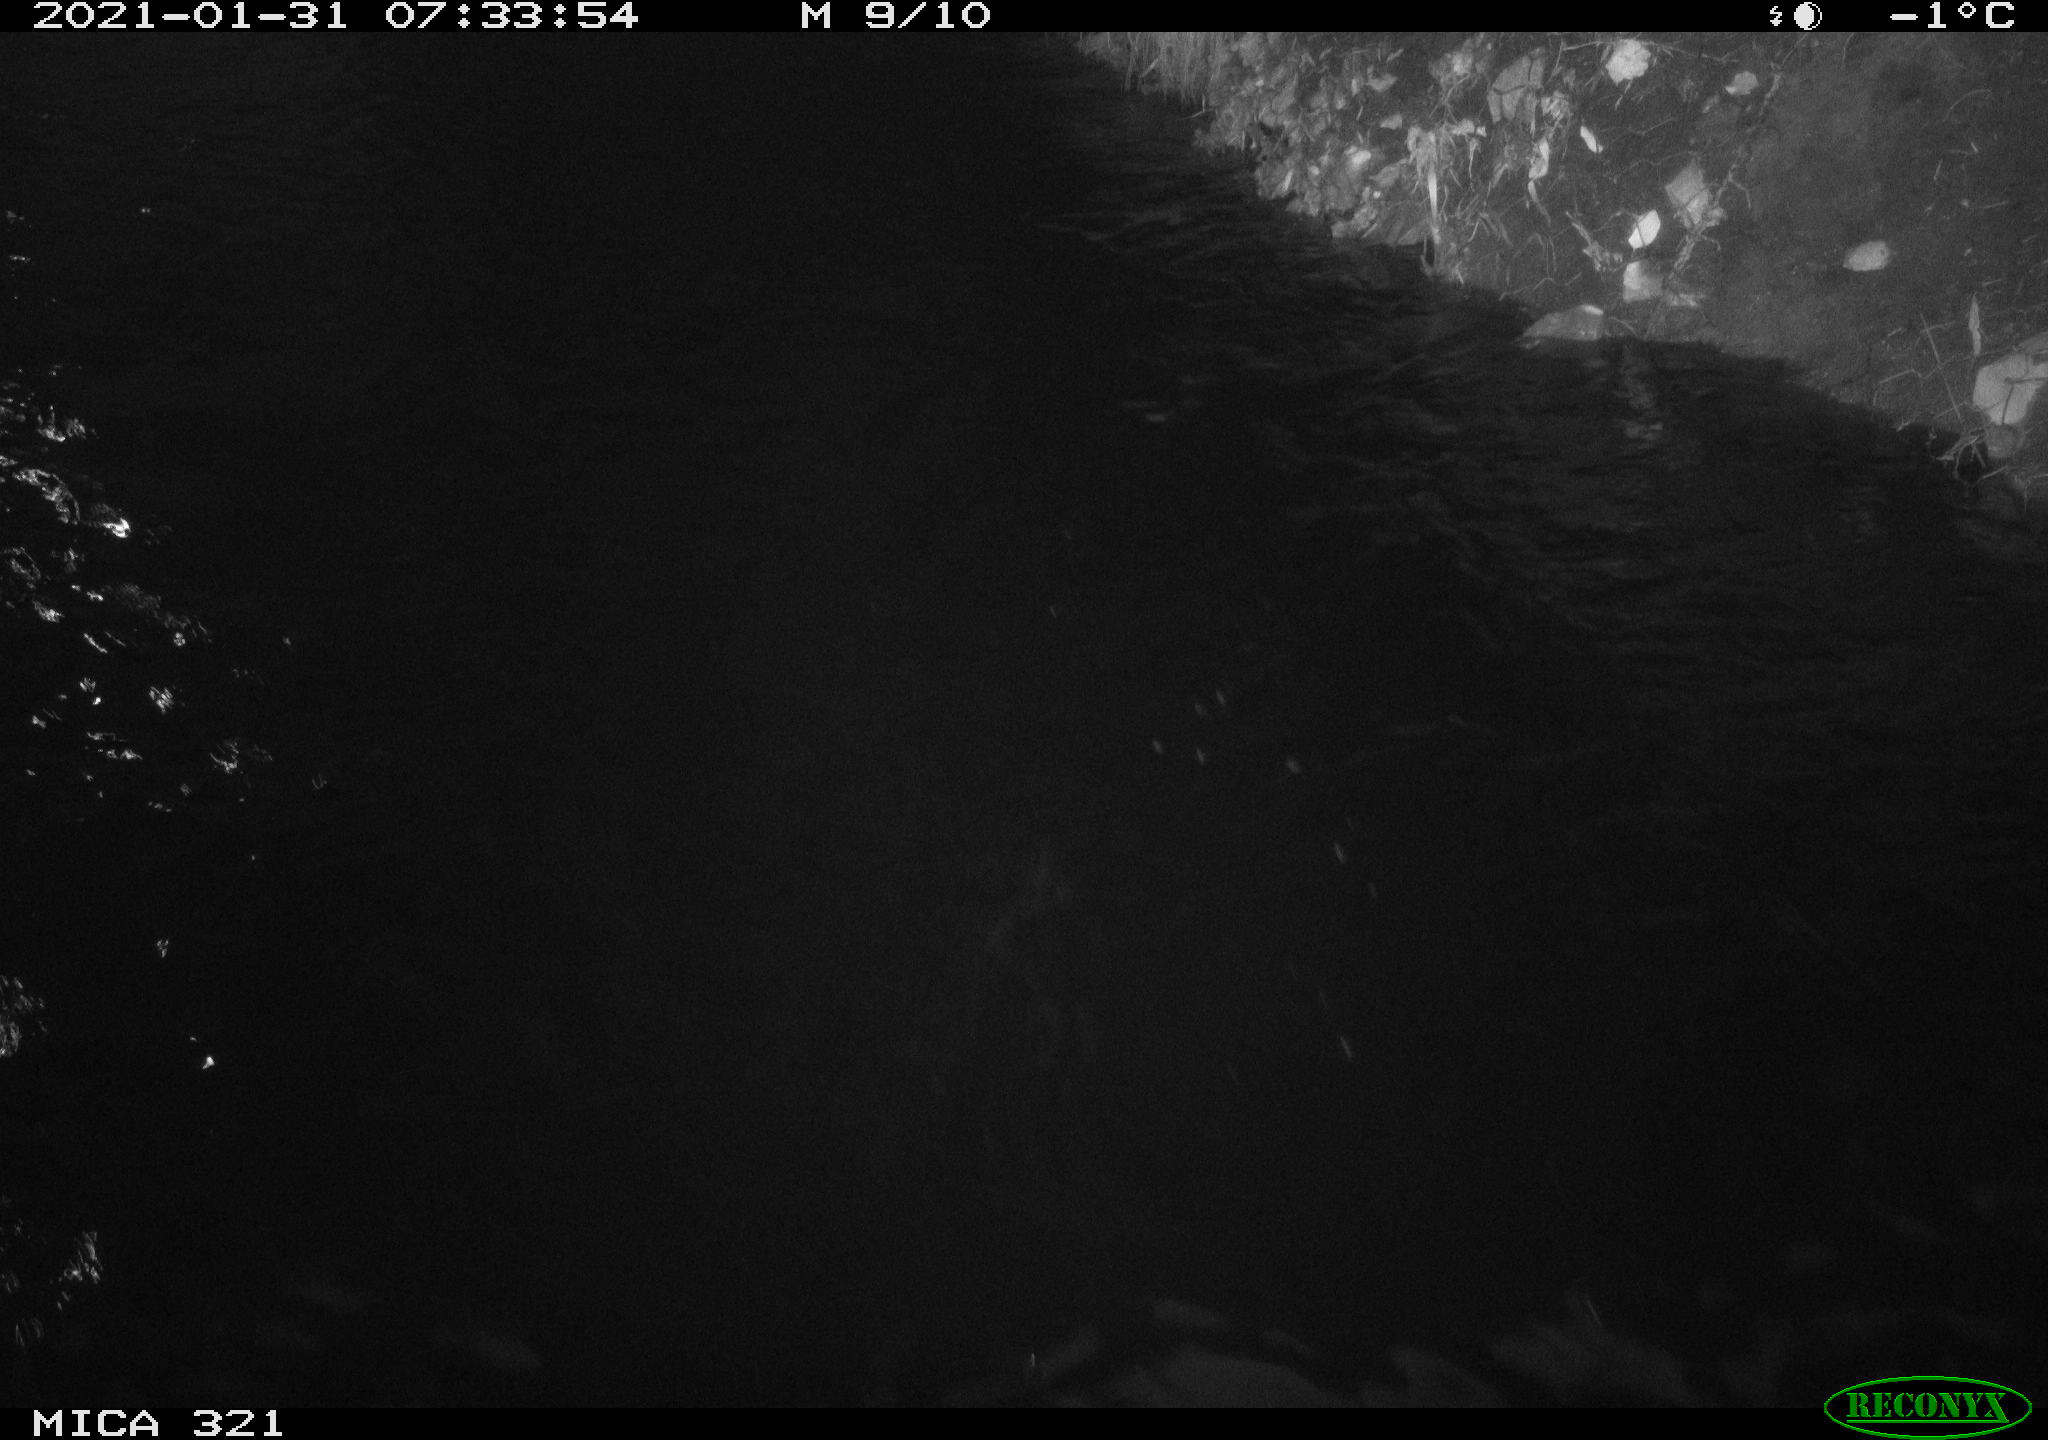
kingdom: Animalia
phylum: Chordata
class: Aves
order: Anseriformes
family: Anatidae
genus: Anas
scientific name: Anas platyrhynchos
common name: Mallard
